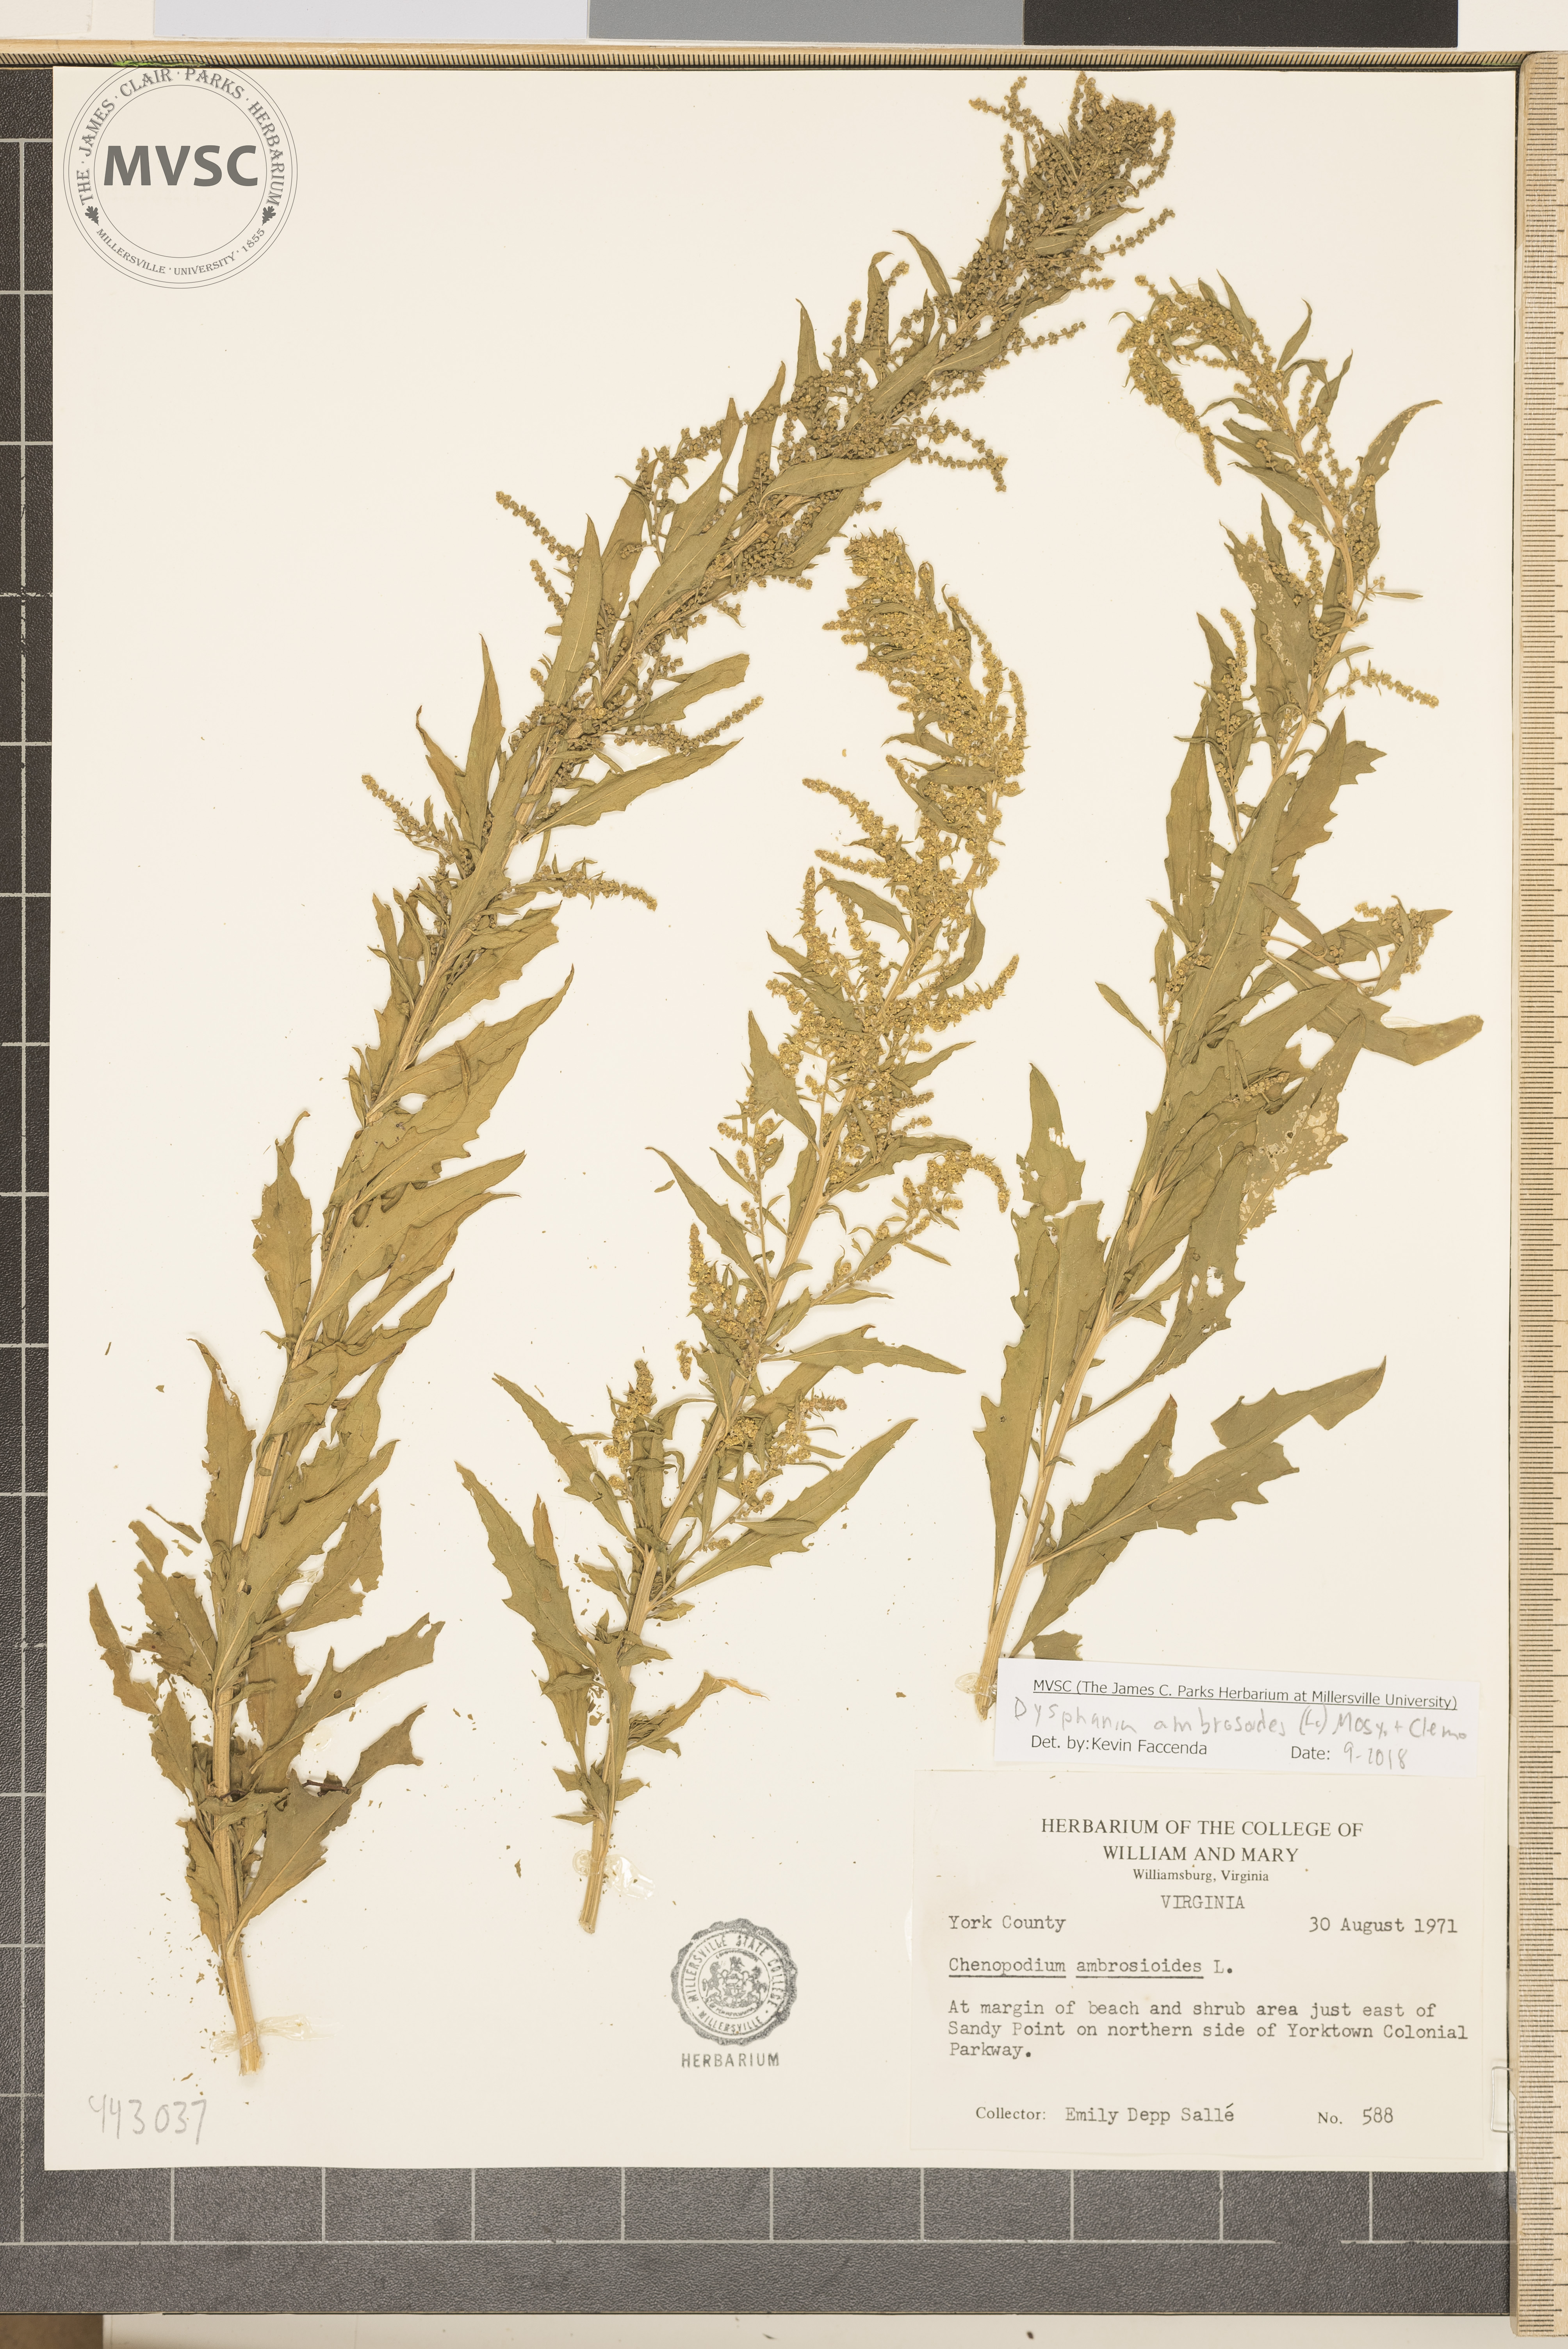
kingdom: Plantae
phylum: Tracheophyta
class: Magnoliopsida
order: Caryophyllales
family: Amaranthaceae
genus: Dysphania
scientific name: Dysphania ambrosioides
